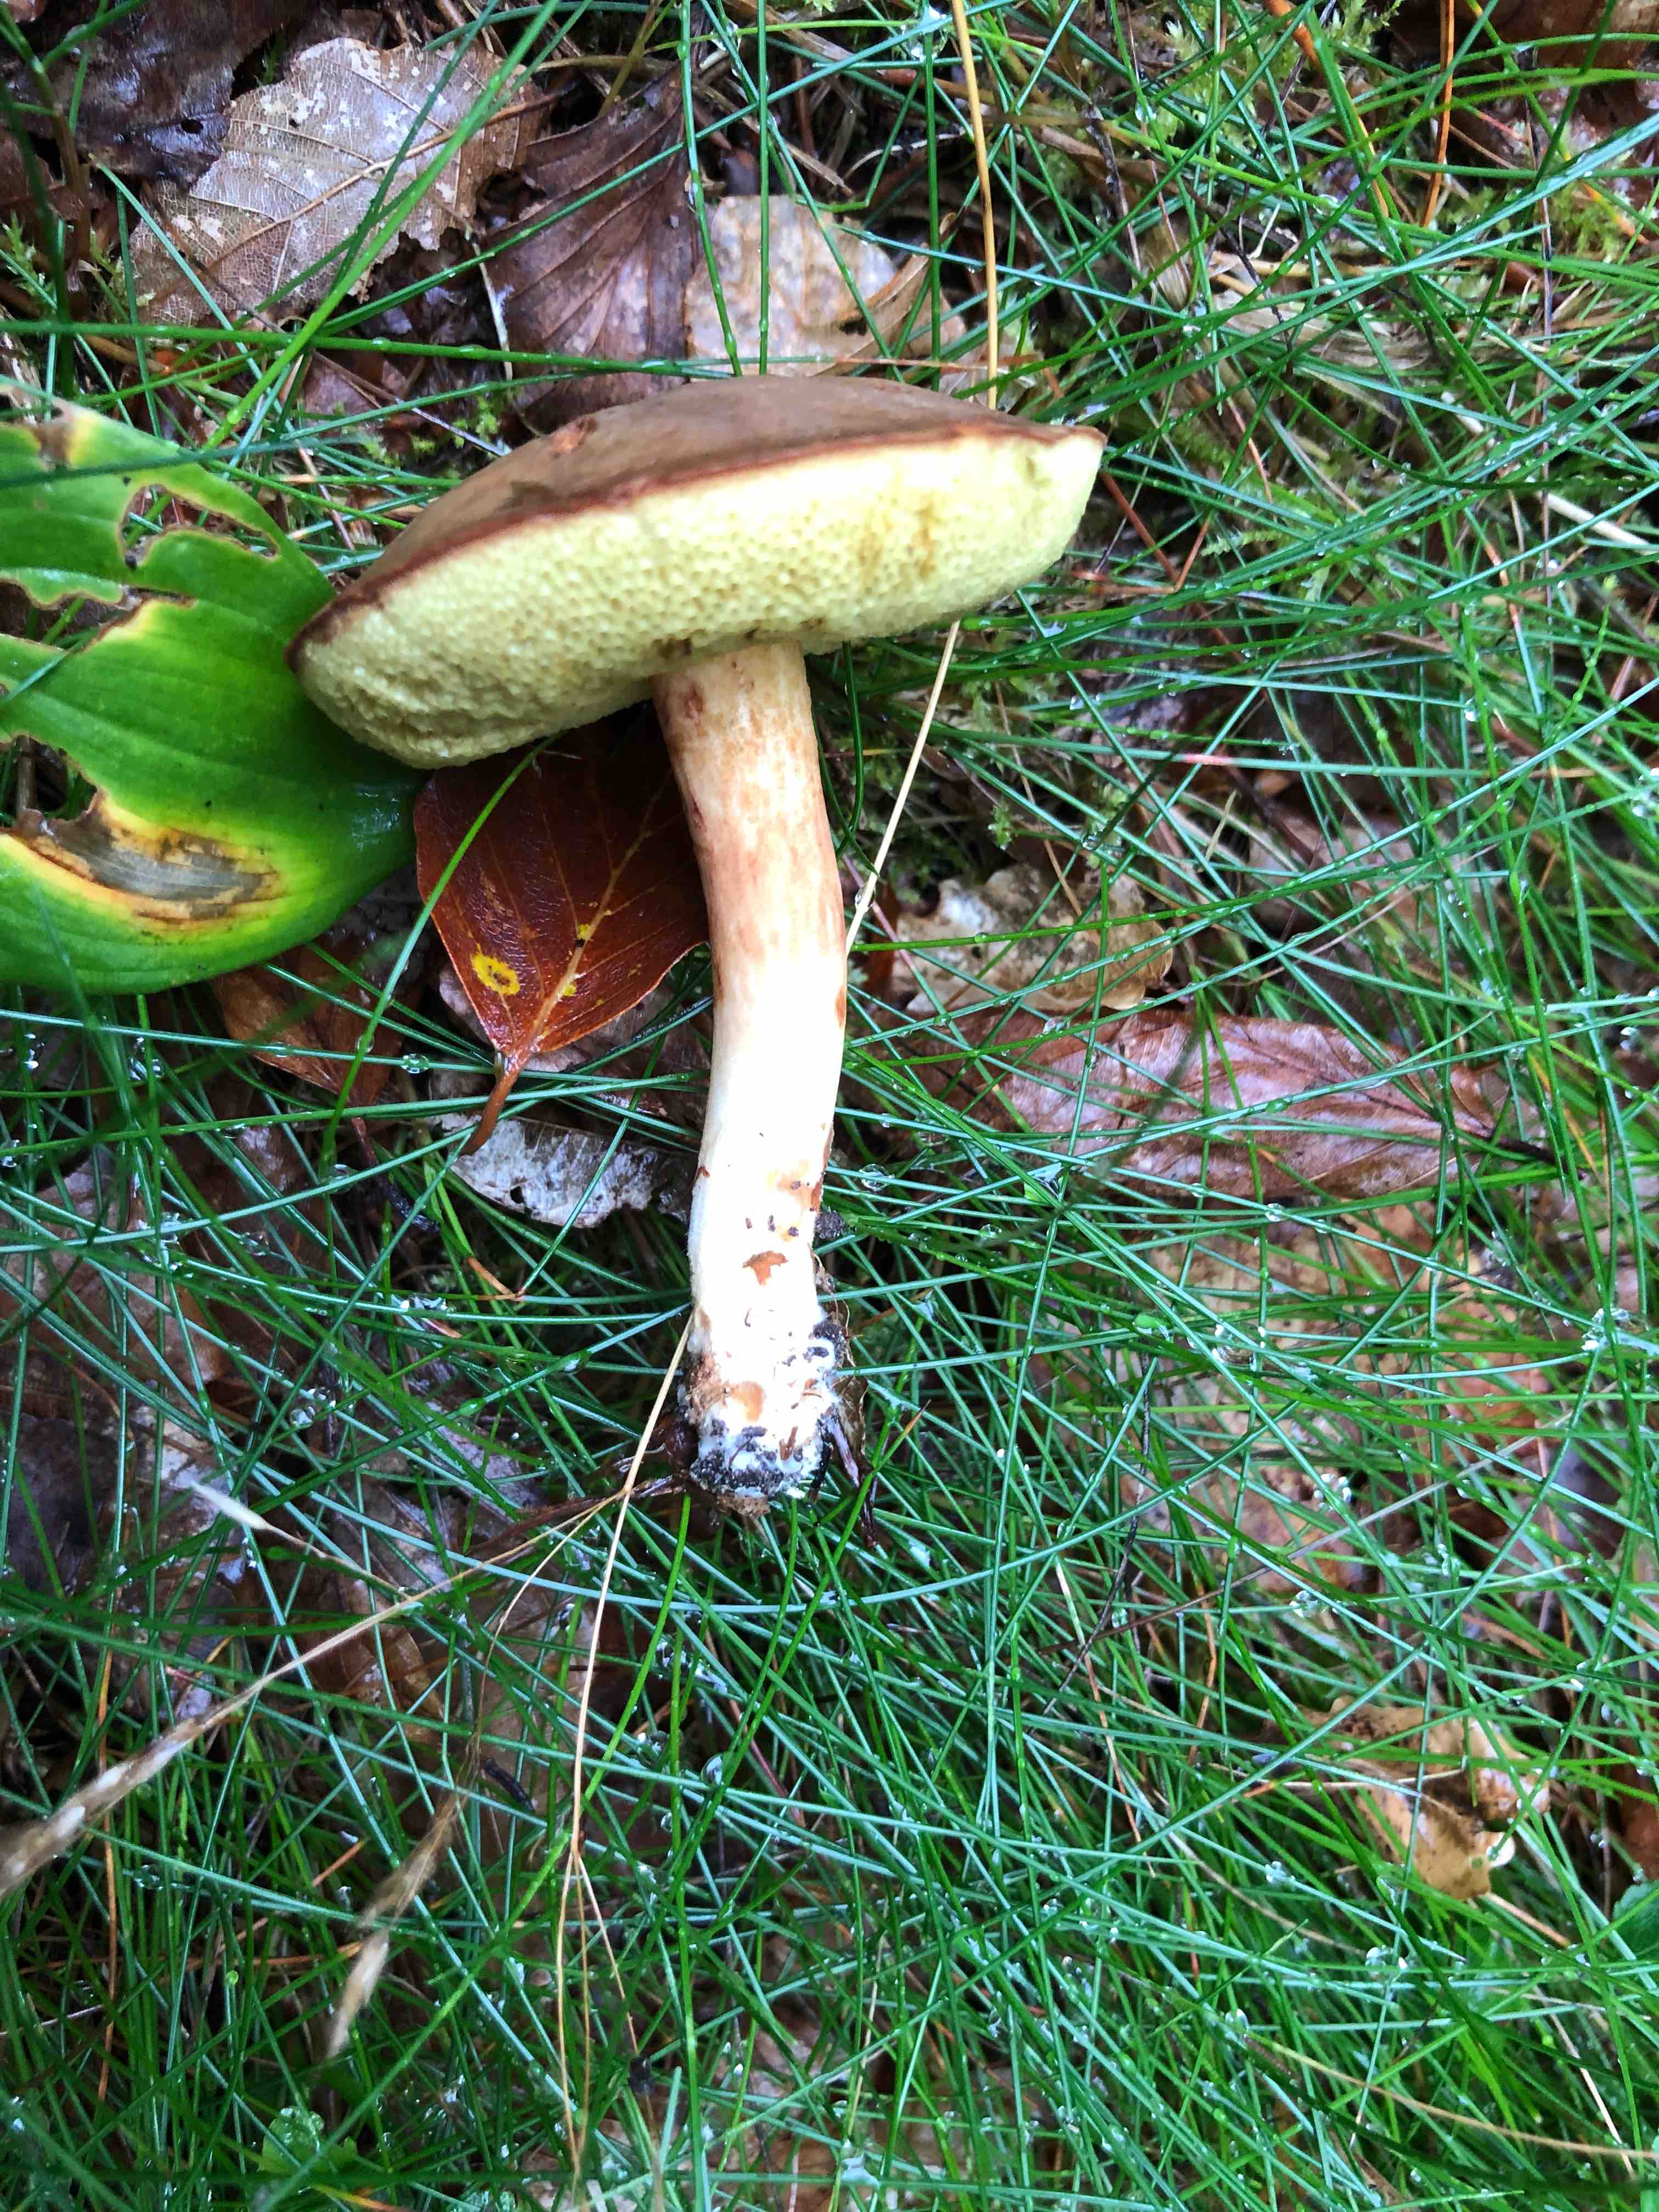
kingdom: Fungi
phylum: Basidiomycota
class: Agaricomycetes
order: Boletales
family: Boletaceae
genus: Xerocomus
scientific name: Xerocomus ferrugineus
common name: vaskeskinds-rørhat
